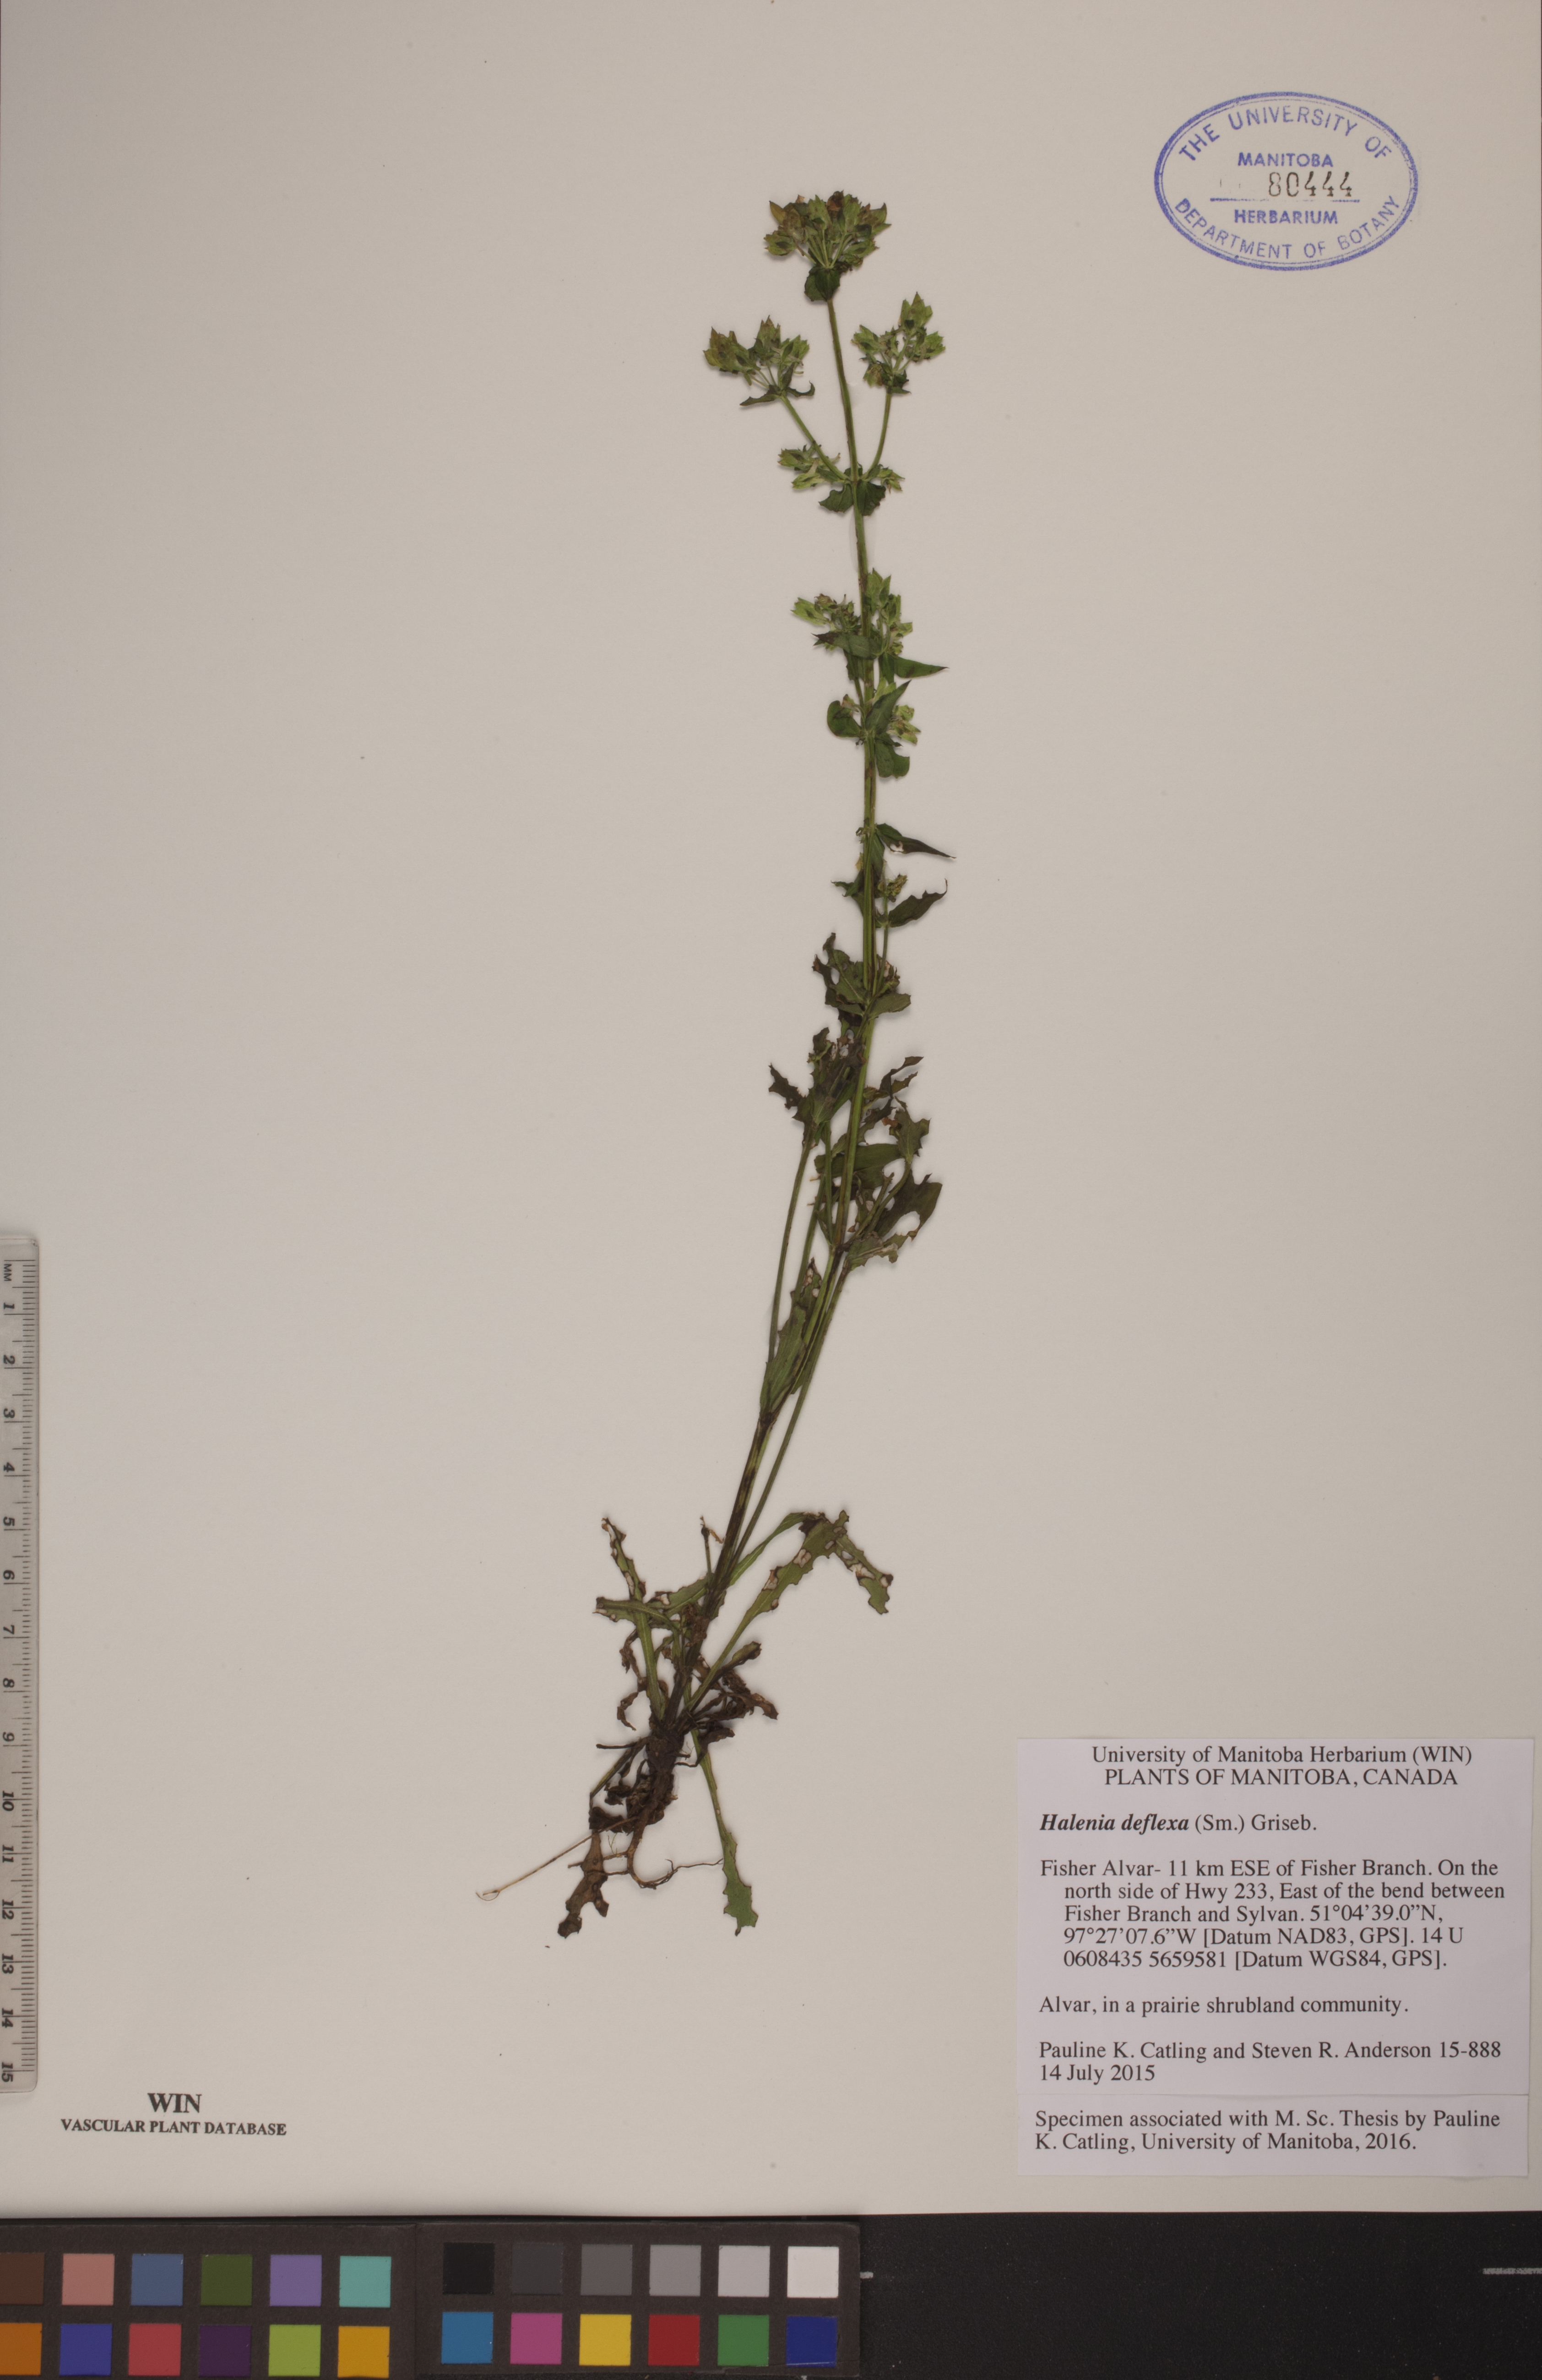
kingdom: Plantae
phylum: Tracheophyta
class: Magnoliopsida
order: Gentianales
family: Gentianaceae
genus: Halenia
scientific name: Halenia deflexa
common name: American spurred gentian
